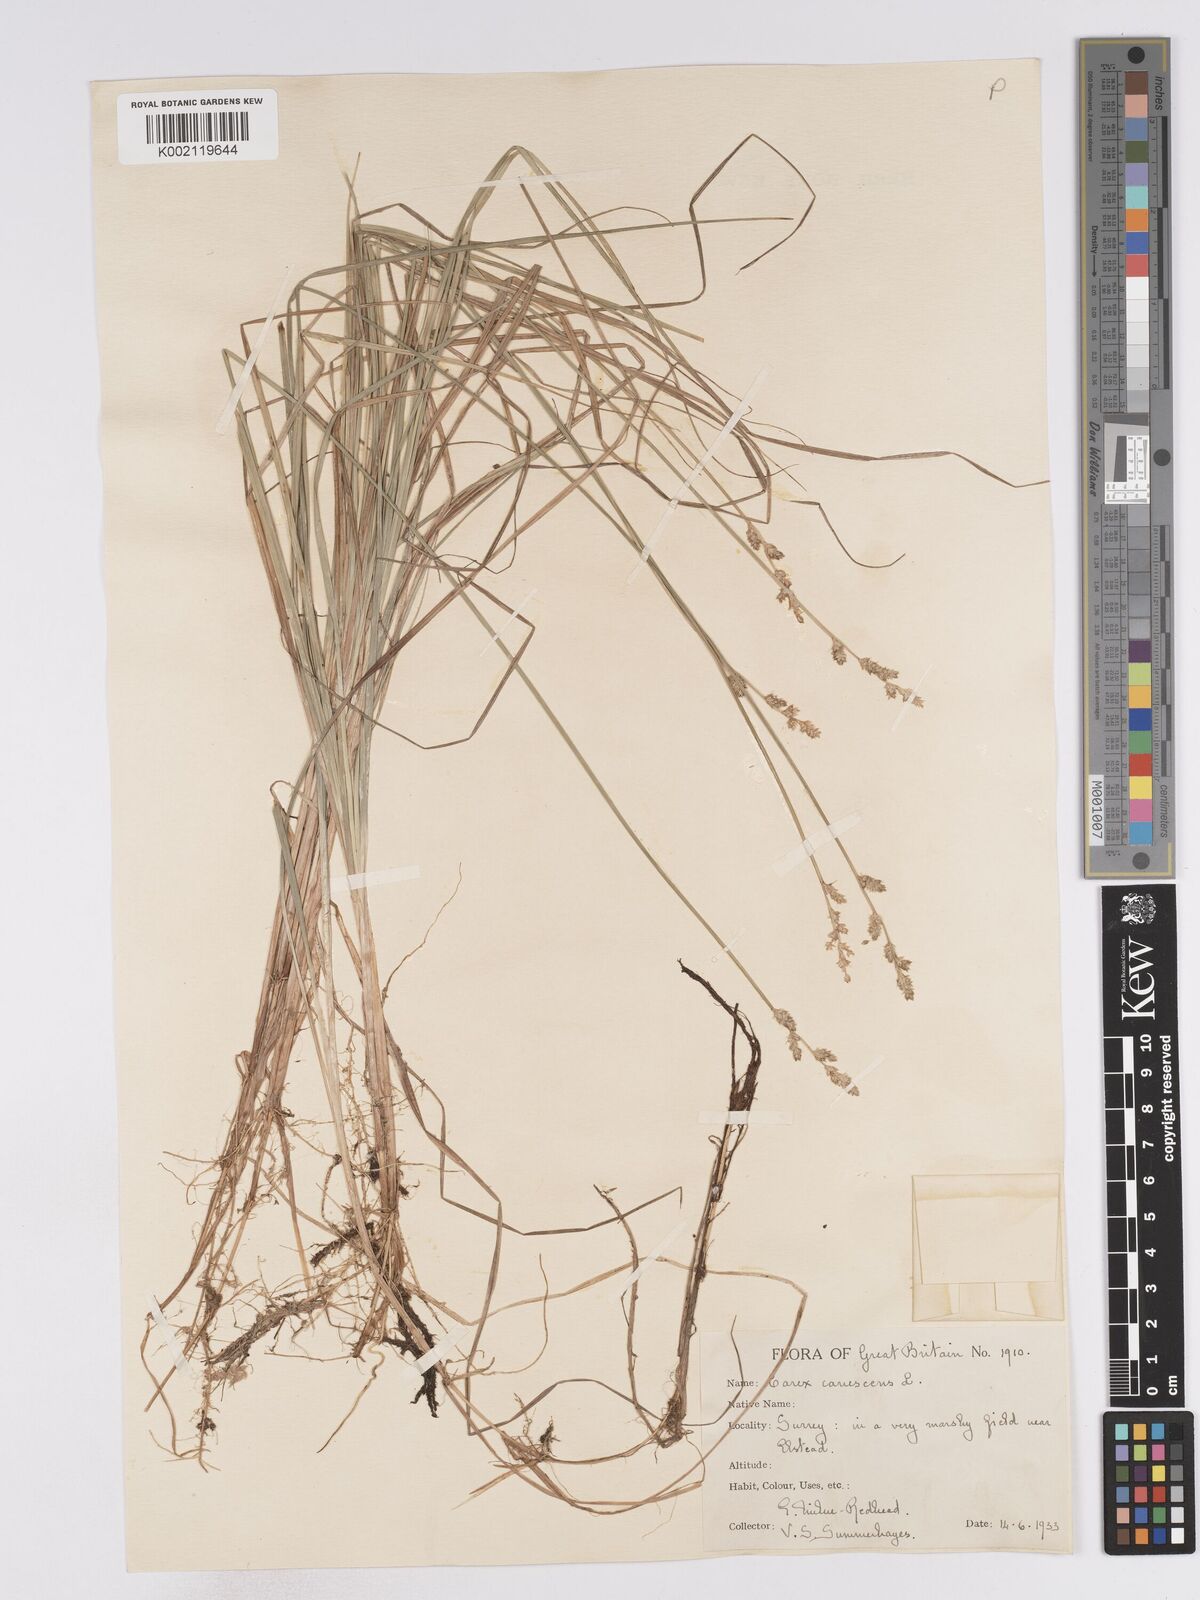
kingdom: Plantae
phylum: Tracheophyta
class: Liliopsida
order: Poales
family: Cyperaceae
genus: Carex
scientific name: Carex curta
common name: White sedge
